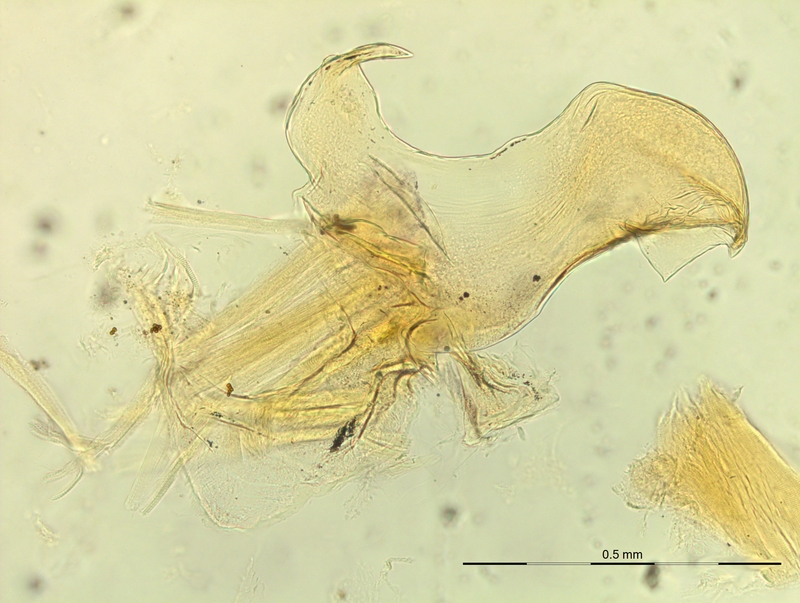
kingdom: Animalia
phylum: Arthropoda
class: Diplopoda
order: Chordeumatida
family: Craspedosomatidae
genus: Macheiriophoron
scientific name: Macheiriophoron alemannicum
